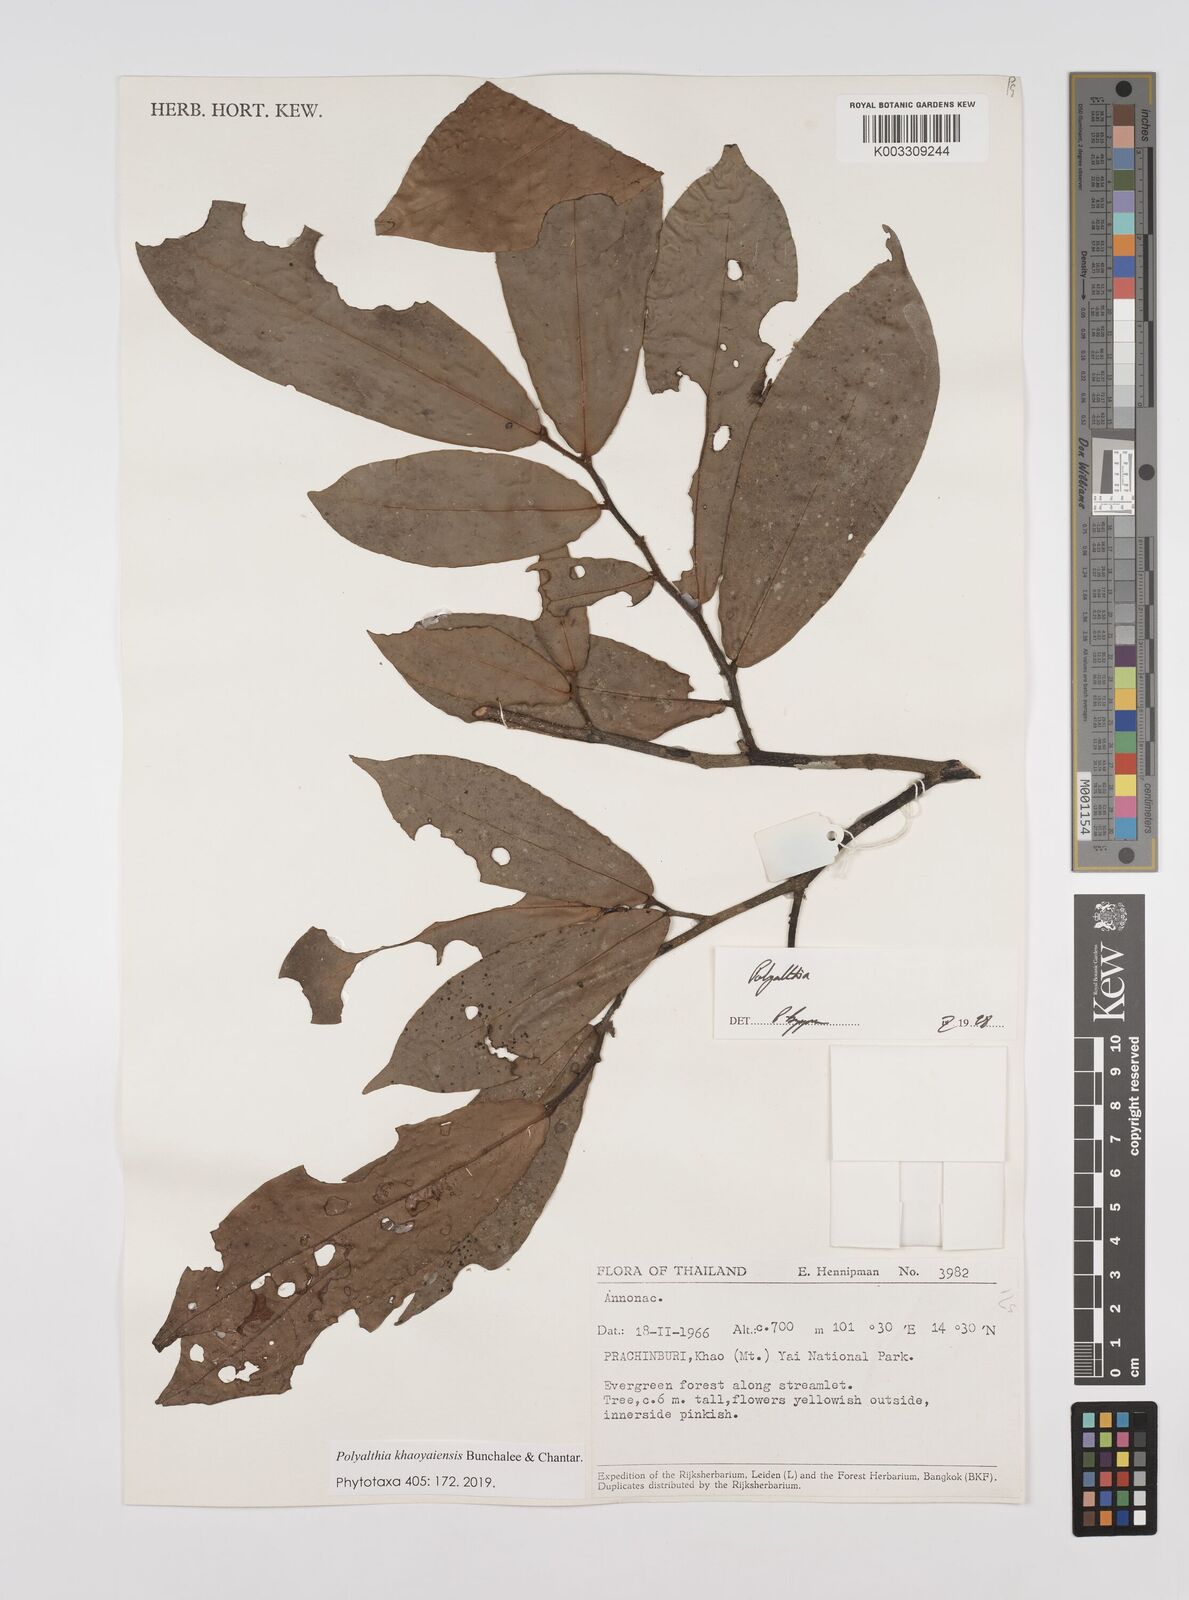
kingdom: Plantae
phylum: Tracheophyta
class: Magnoliopsida
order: Magnoliales
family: Annonaceae
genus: Polyalthia
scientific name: Polyalthia khaoyaiensis
